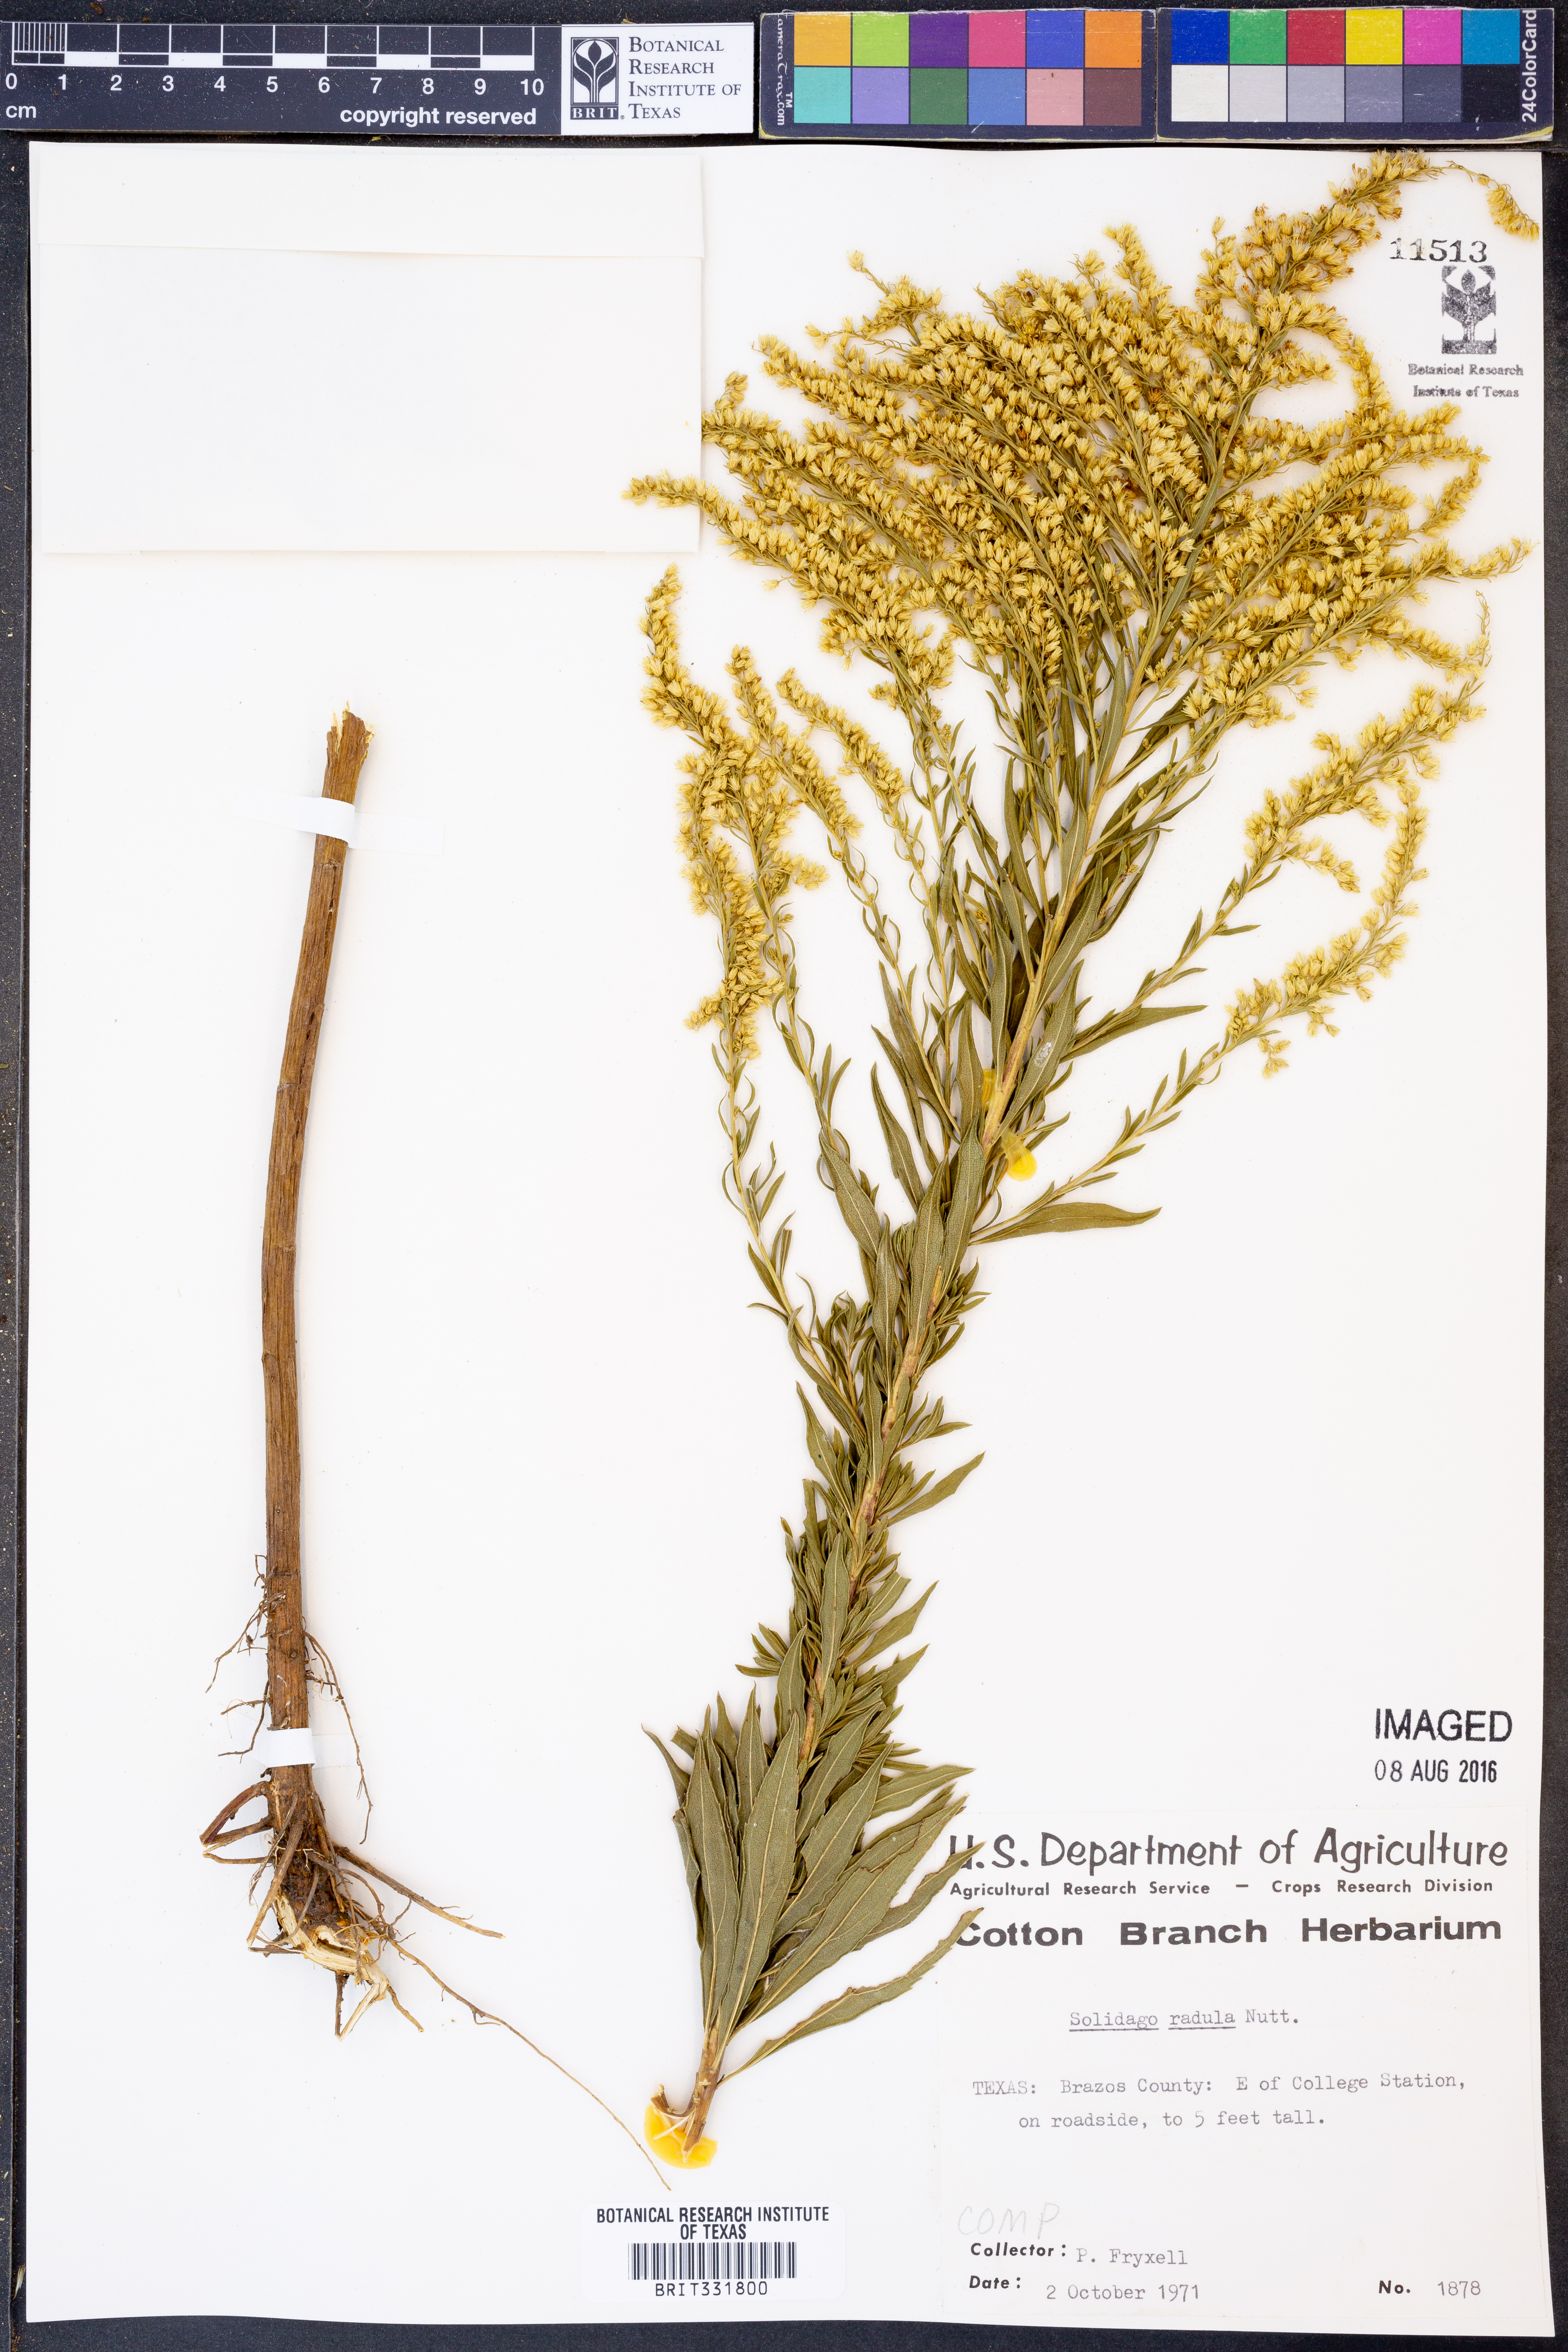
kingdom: Plantae
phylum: Tracheophyta
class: Magnoliopsida
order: Asterales
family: Asteraceae
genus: Solidago
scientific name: Solidago radula
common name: Western rough goldenrod
